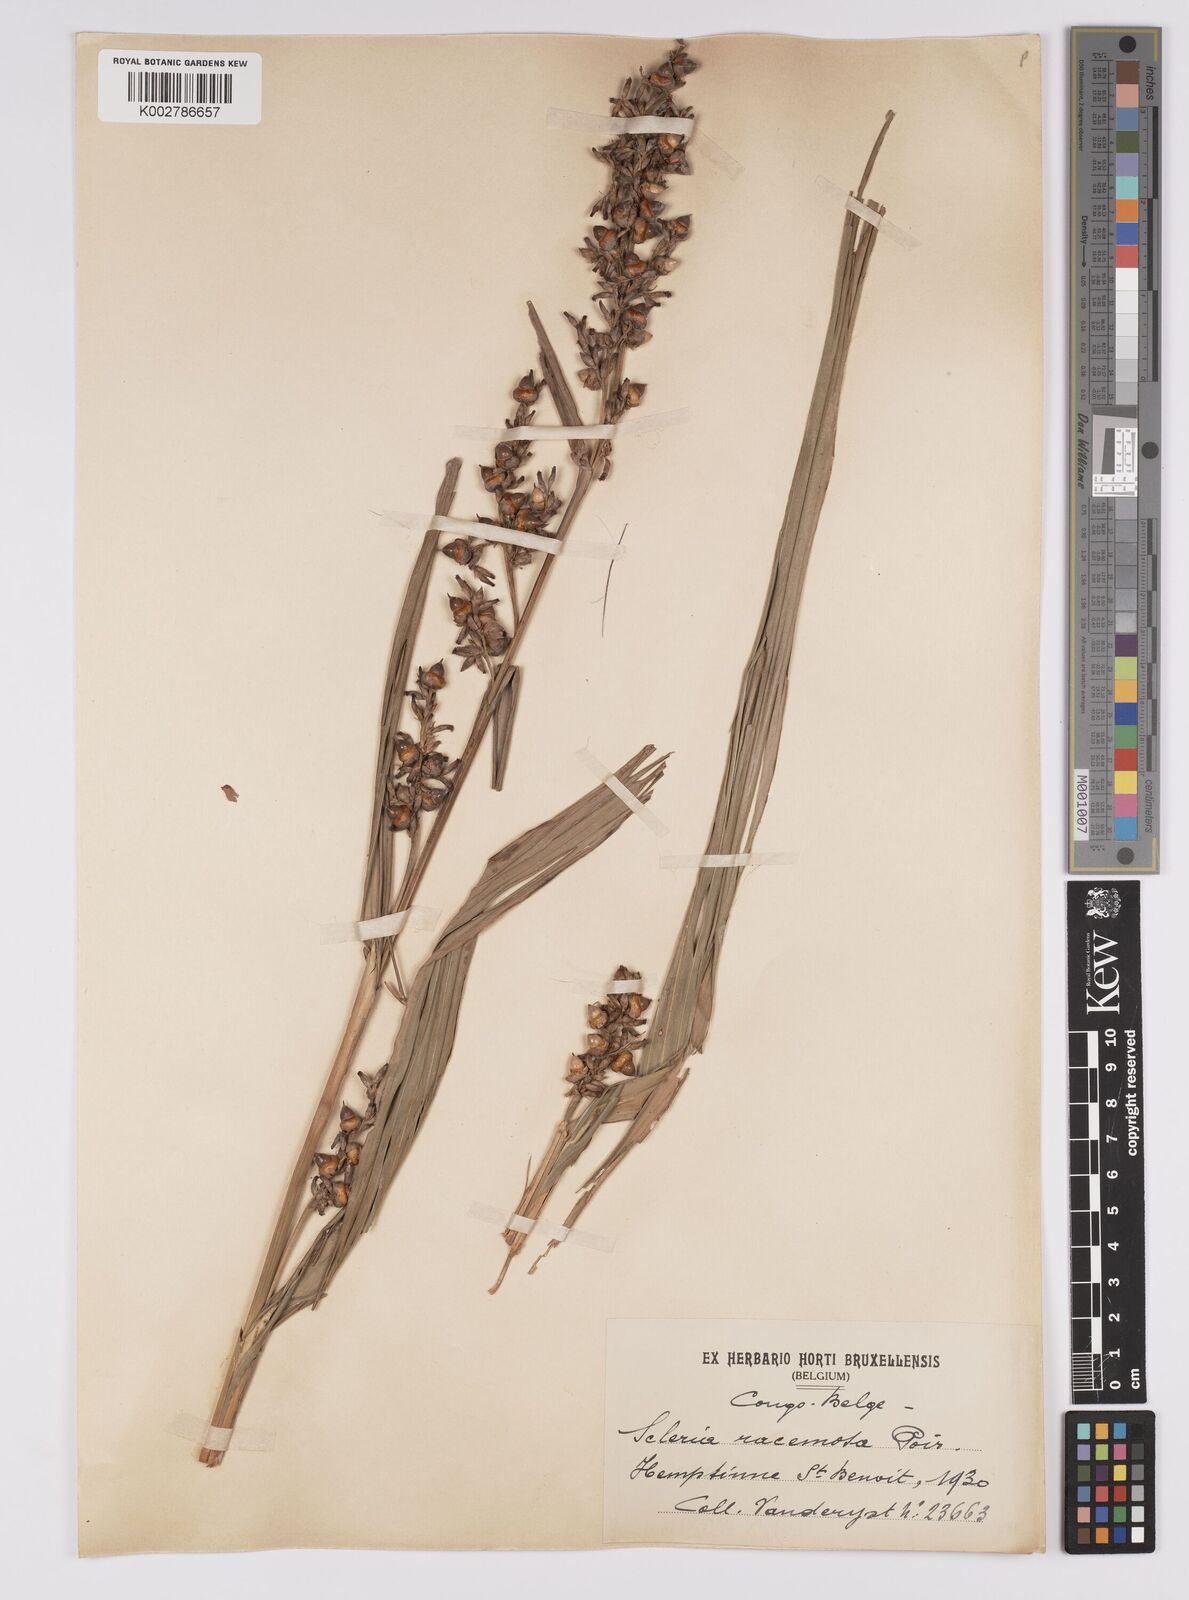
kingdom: Plantae
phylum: Tracheophyta
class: Liliopsida
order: Poales
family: Cyperaceae
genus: Scleria
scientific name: Scleria racemosa
